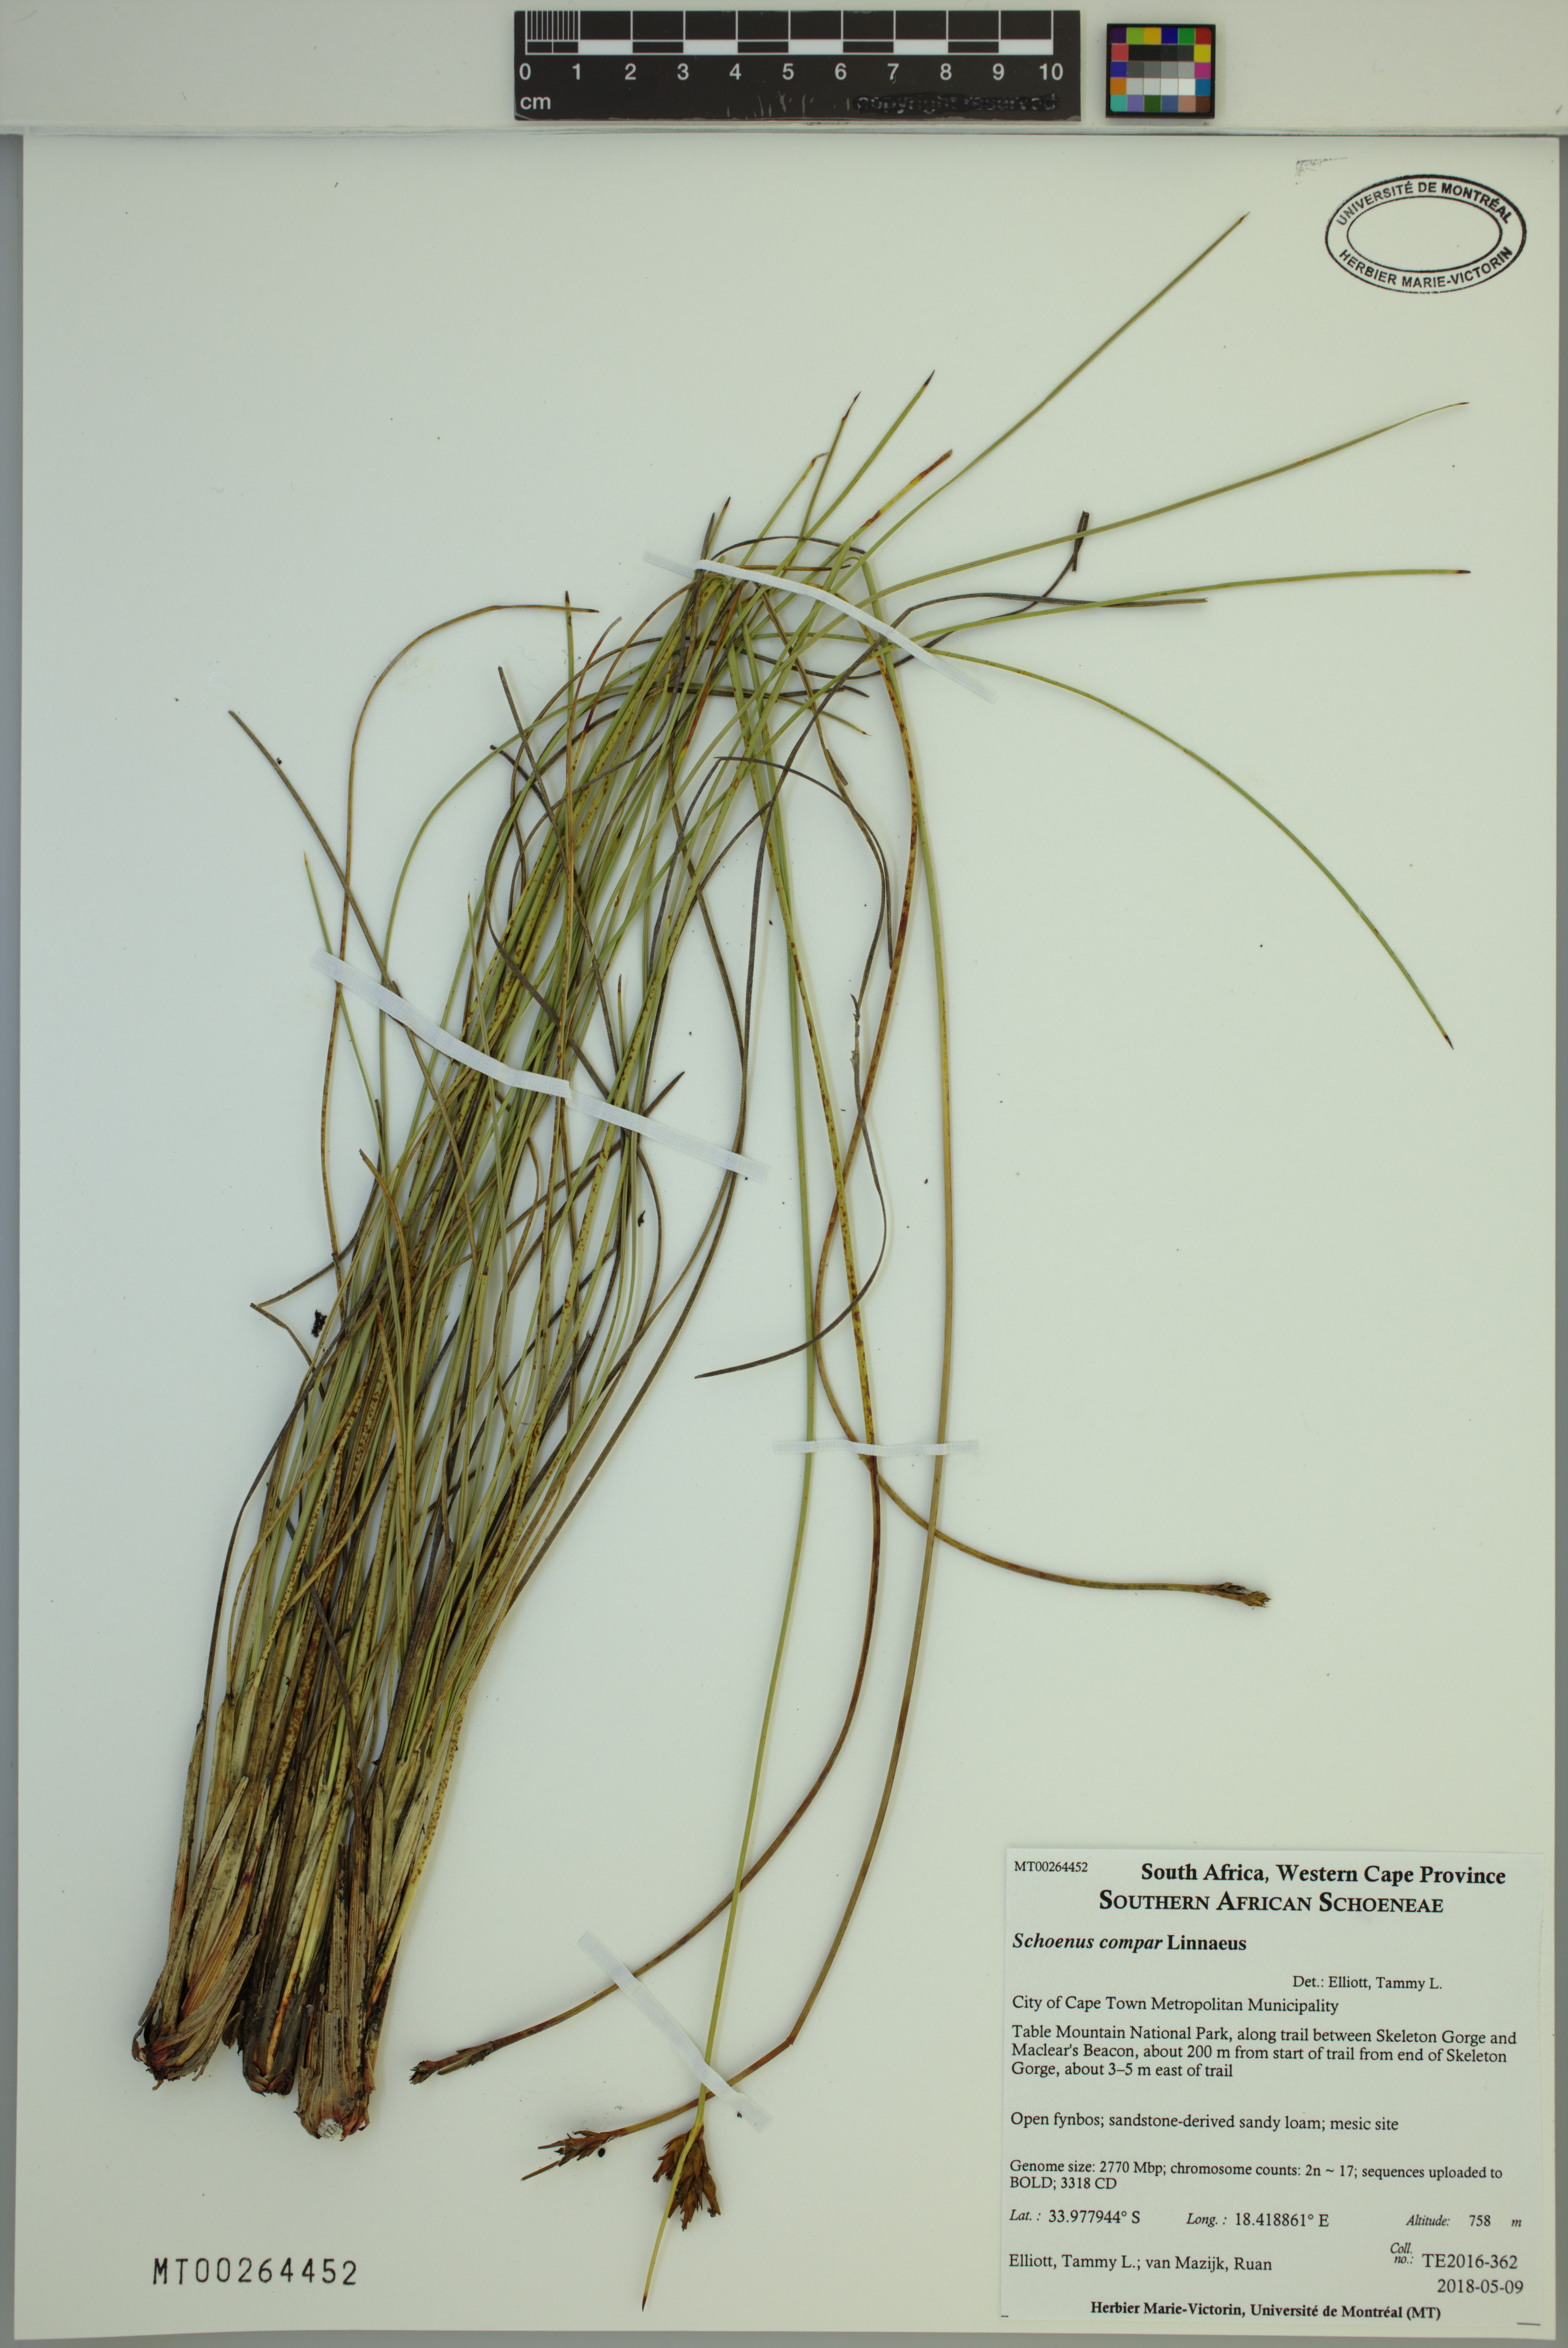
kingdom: Plantae
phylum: Tracheophyta
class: Liliopsida
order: Poales
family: Cyperaceae
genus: Schoenus
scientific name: Schoenus compar
